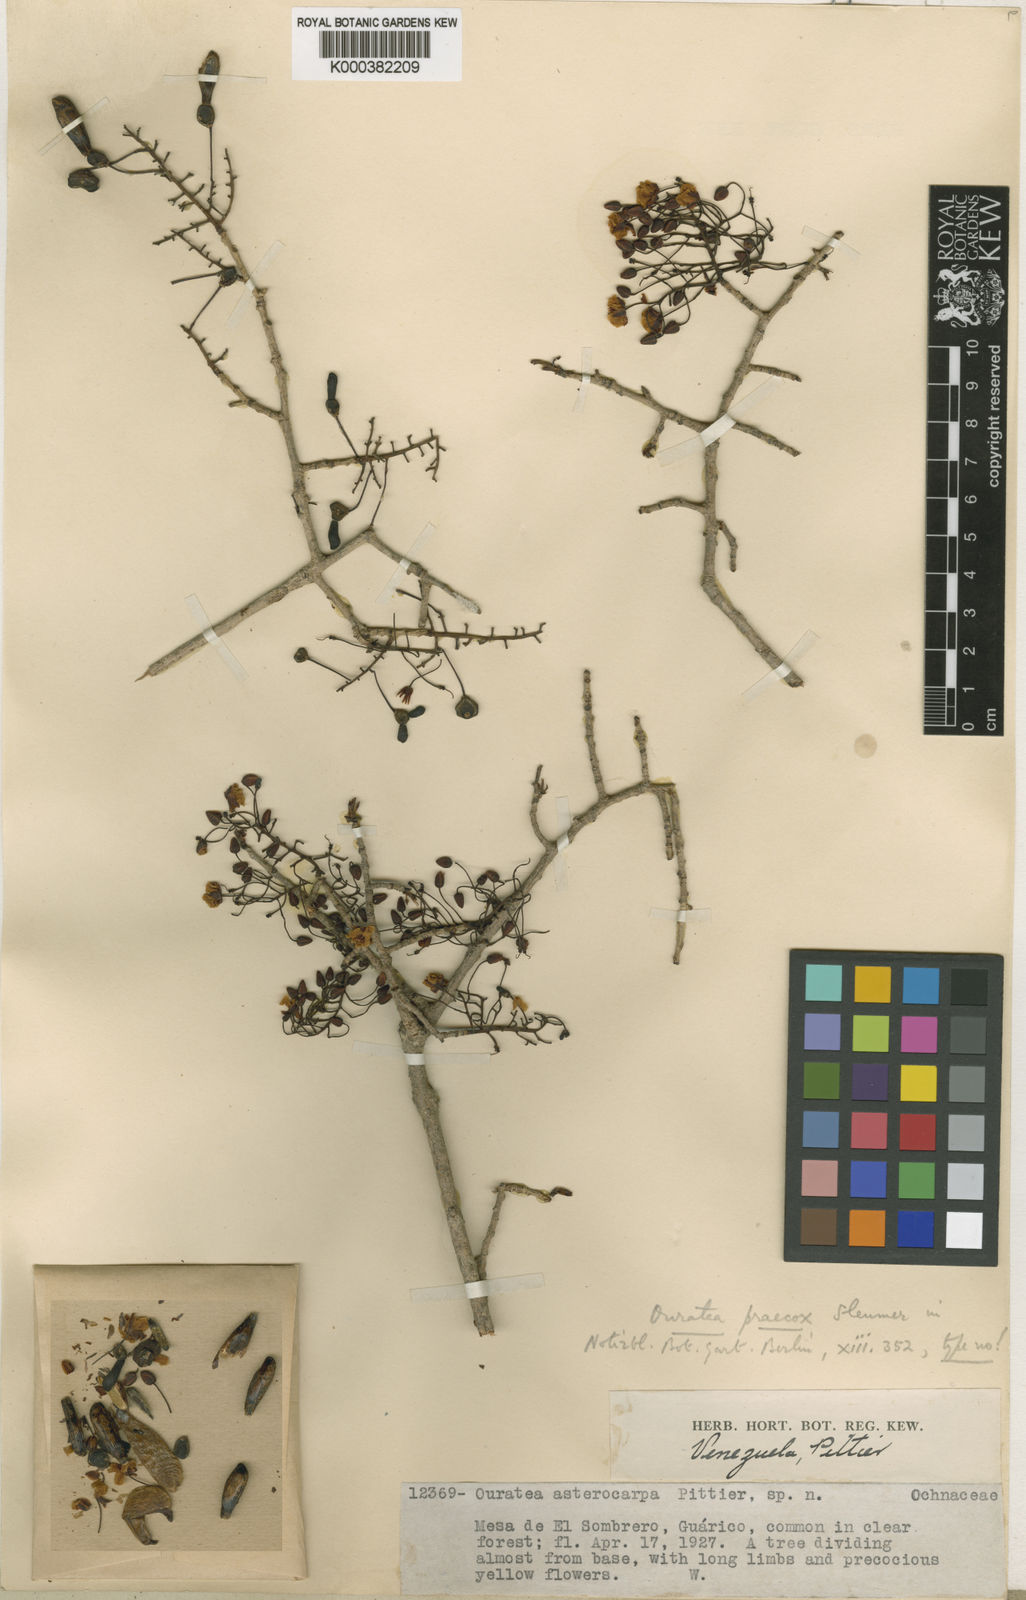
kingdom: Plantae
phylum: Tracheophyta
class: Magnoliopsida
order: Malpighiales
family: Ochnaceae
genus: Ouratea
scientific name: Ouratea guildingii
